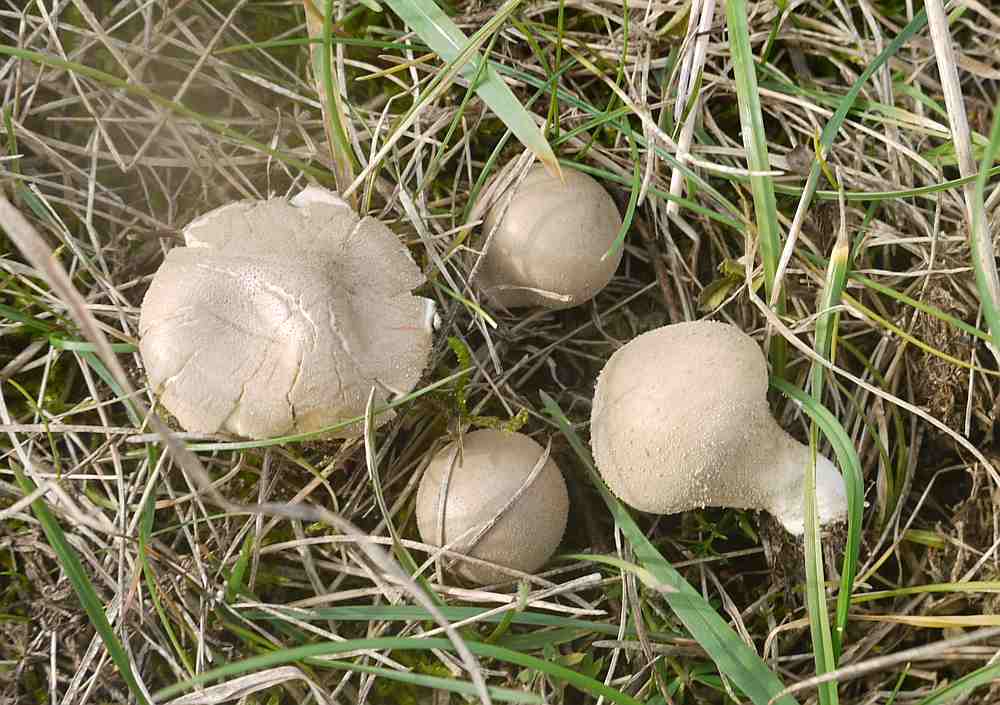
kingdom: Fungi
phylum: Basidiomycota
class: Agaricomycetes
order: Agaricales
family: Lycoperdaceae
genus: Lycoperdon
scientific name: Lycoperdon lividum
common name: mark-støvbold
